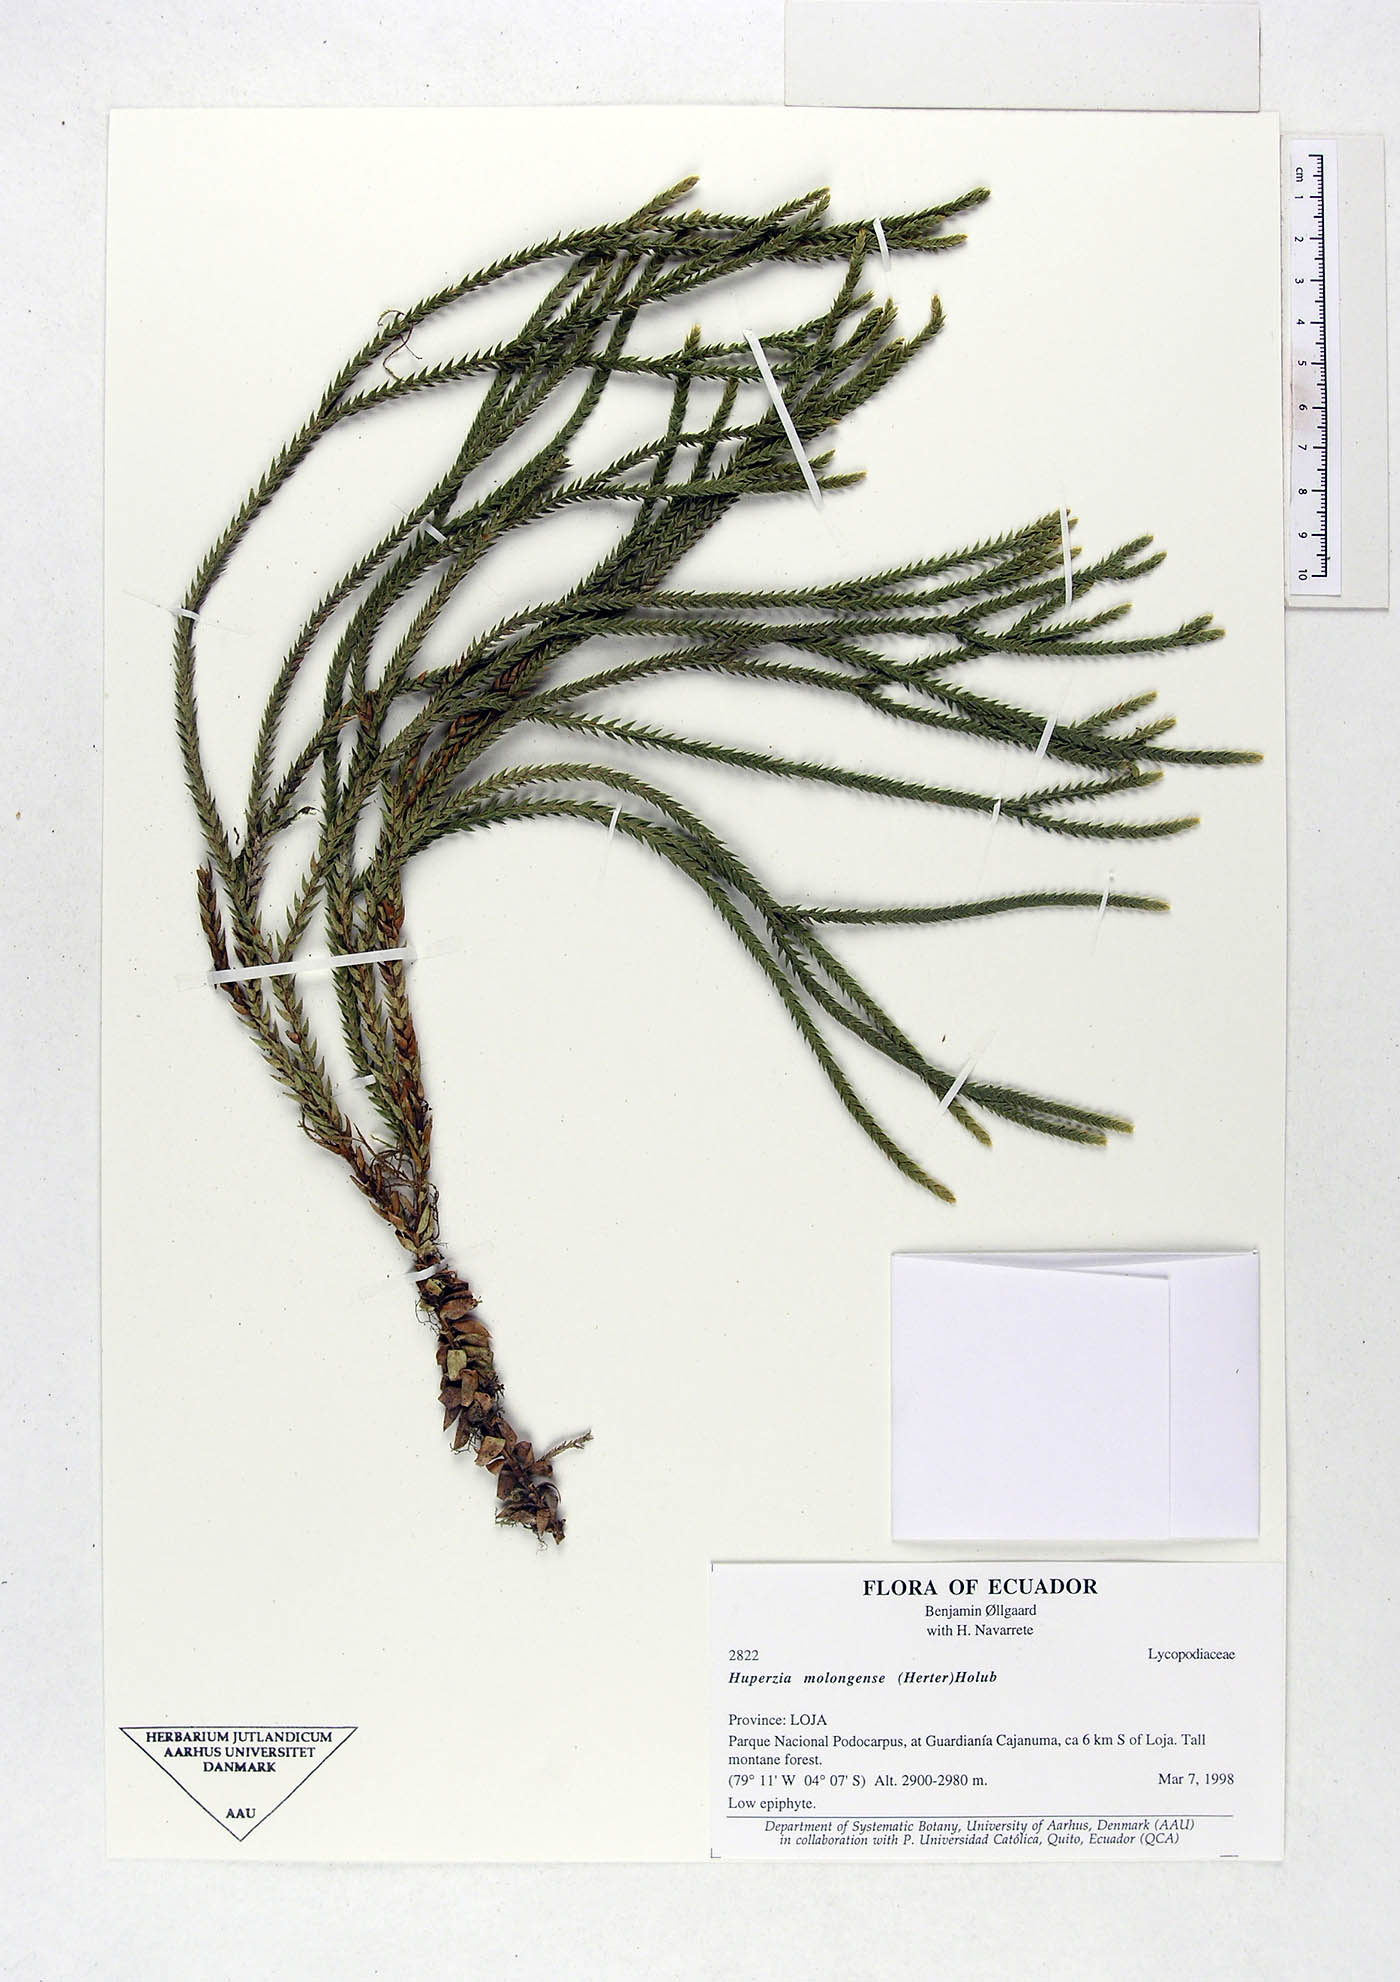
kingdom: Plantae
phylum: Tracheophyta
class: Lycopodiopsida
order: Lycopodiales
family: Lycopodiaceae
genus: Phlegmariurus
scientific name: Phlegmariurus echinatus
